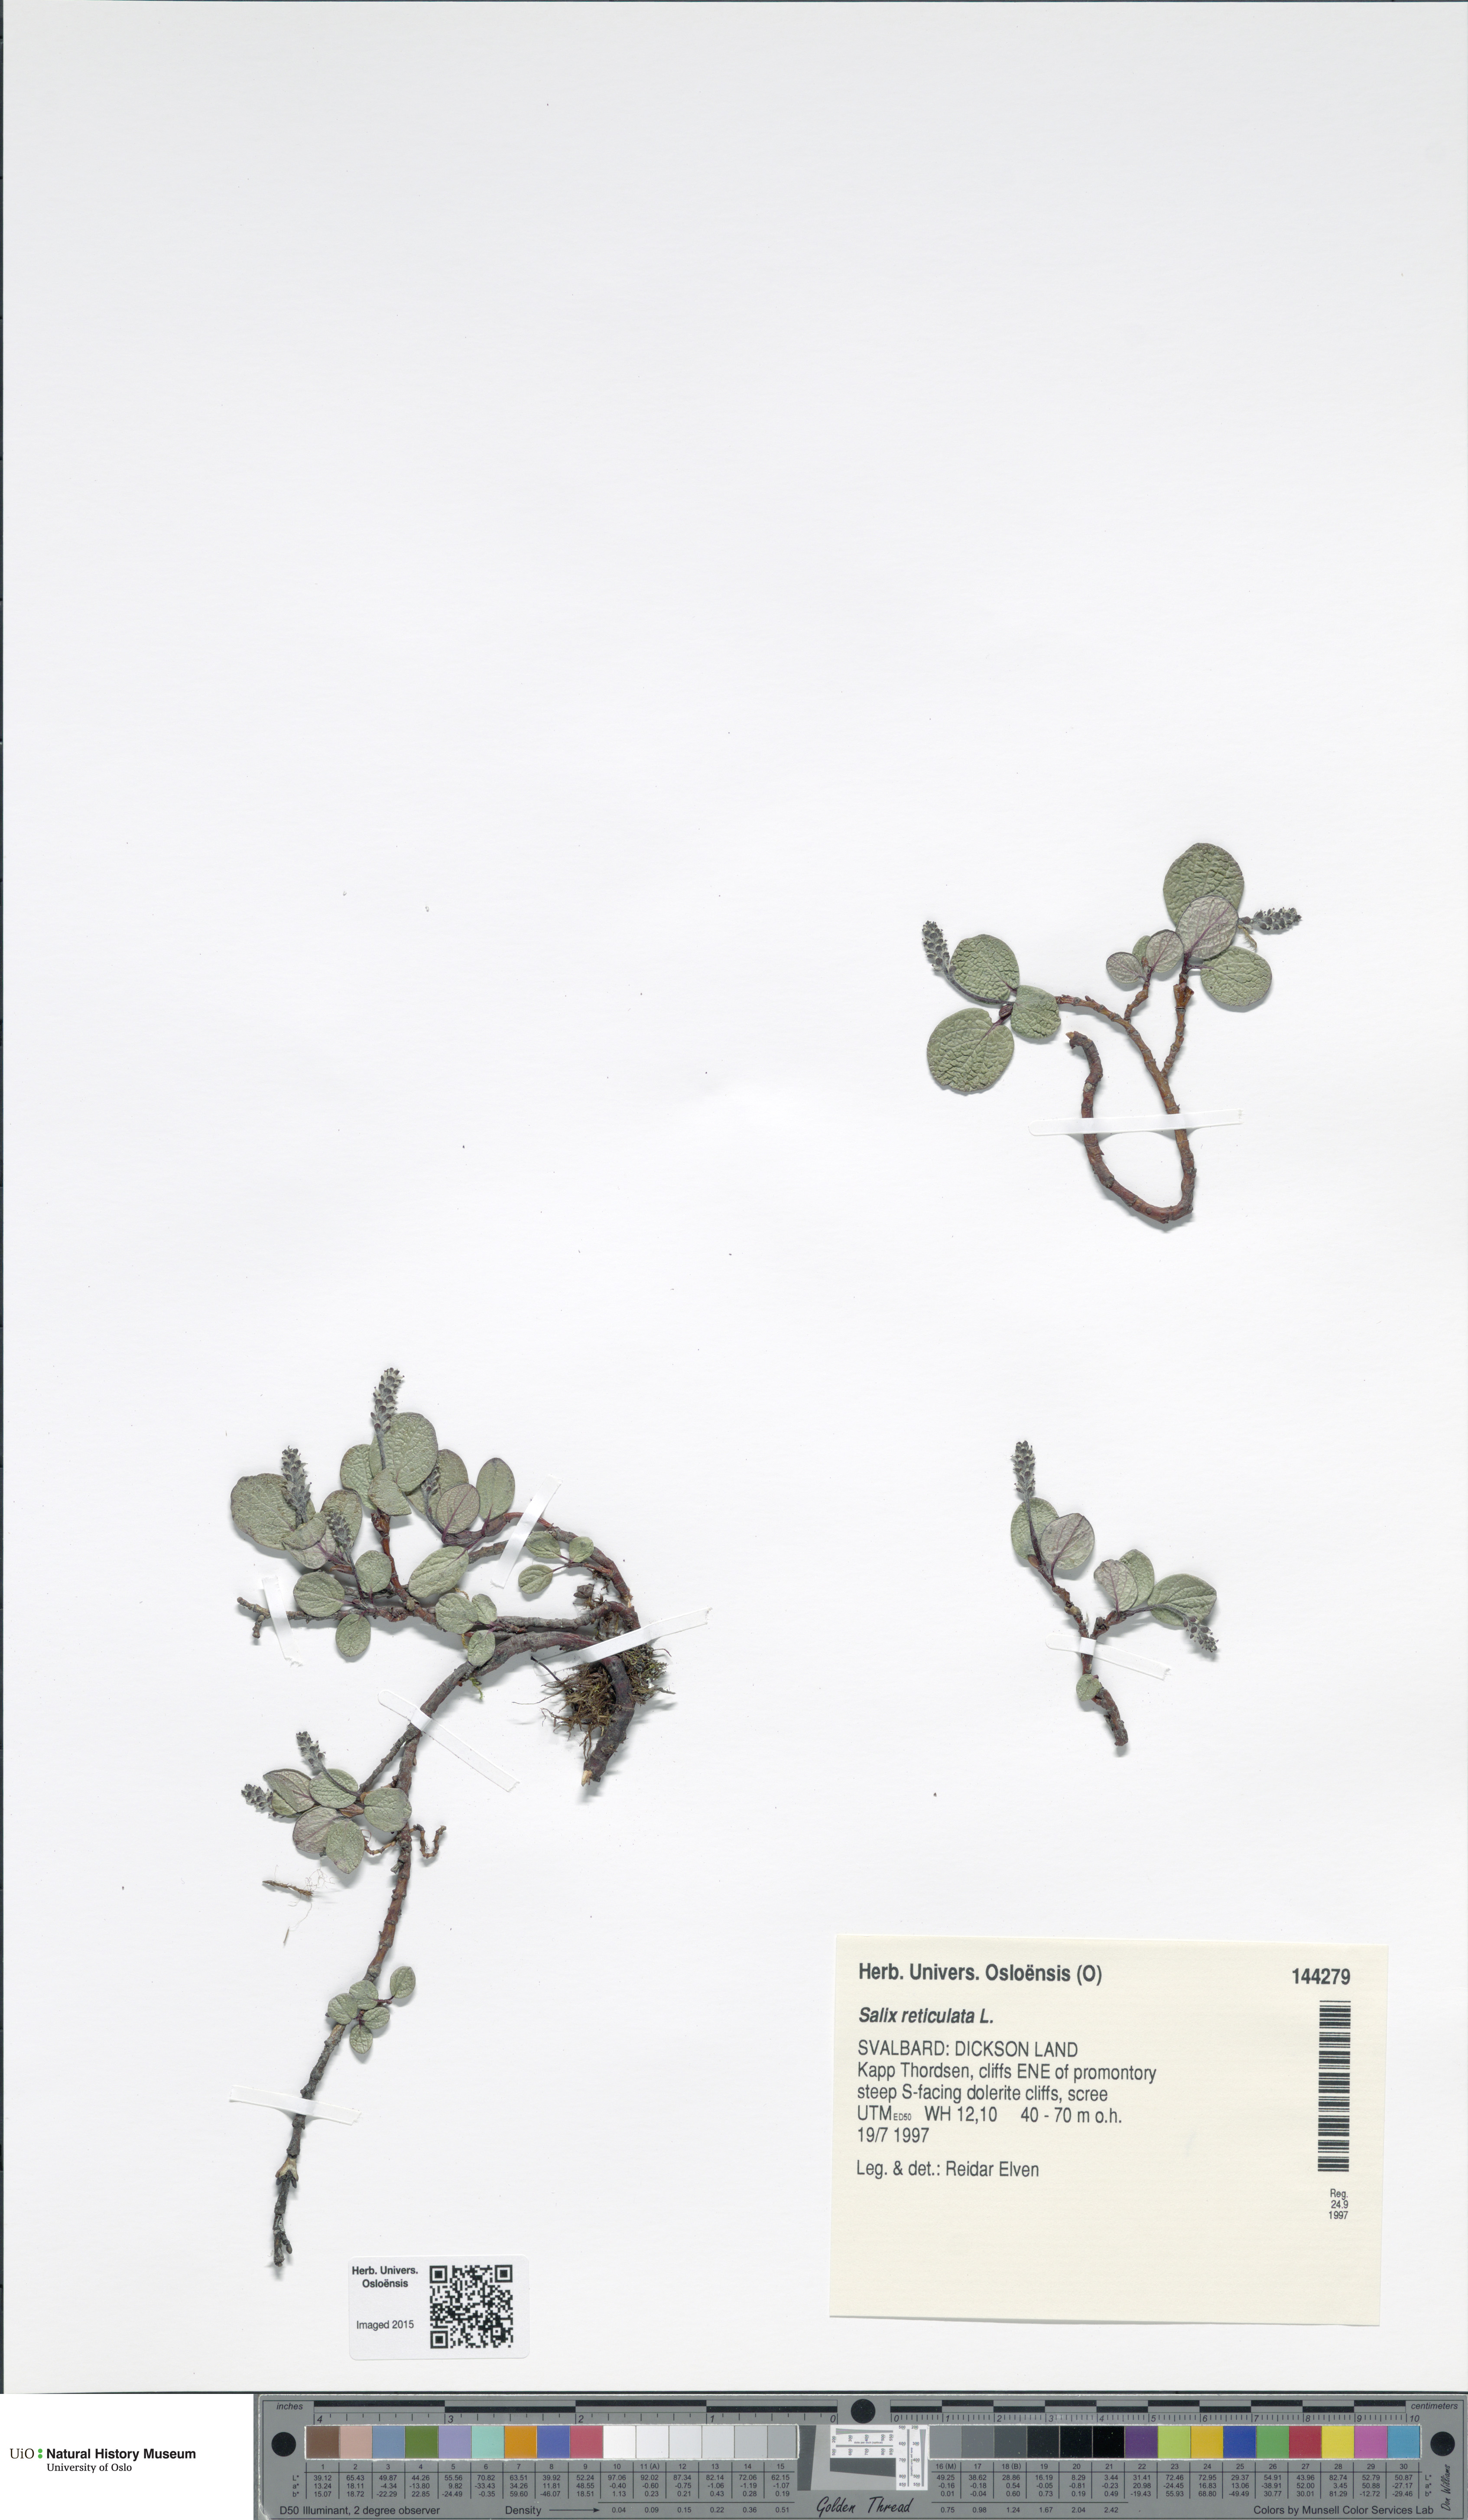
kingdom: Plantae
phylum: Tracheophyta
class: Magnoliopsida
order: Malpighiales
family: Salicaceae
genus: Salix
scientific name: Salix reticulata
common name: Net-leaved willow
